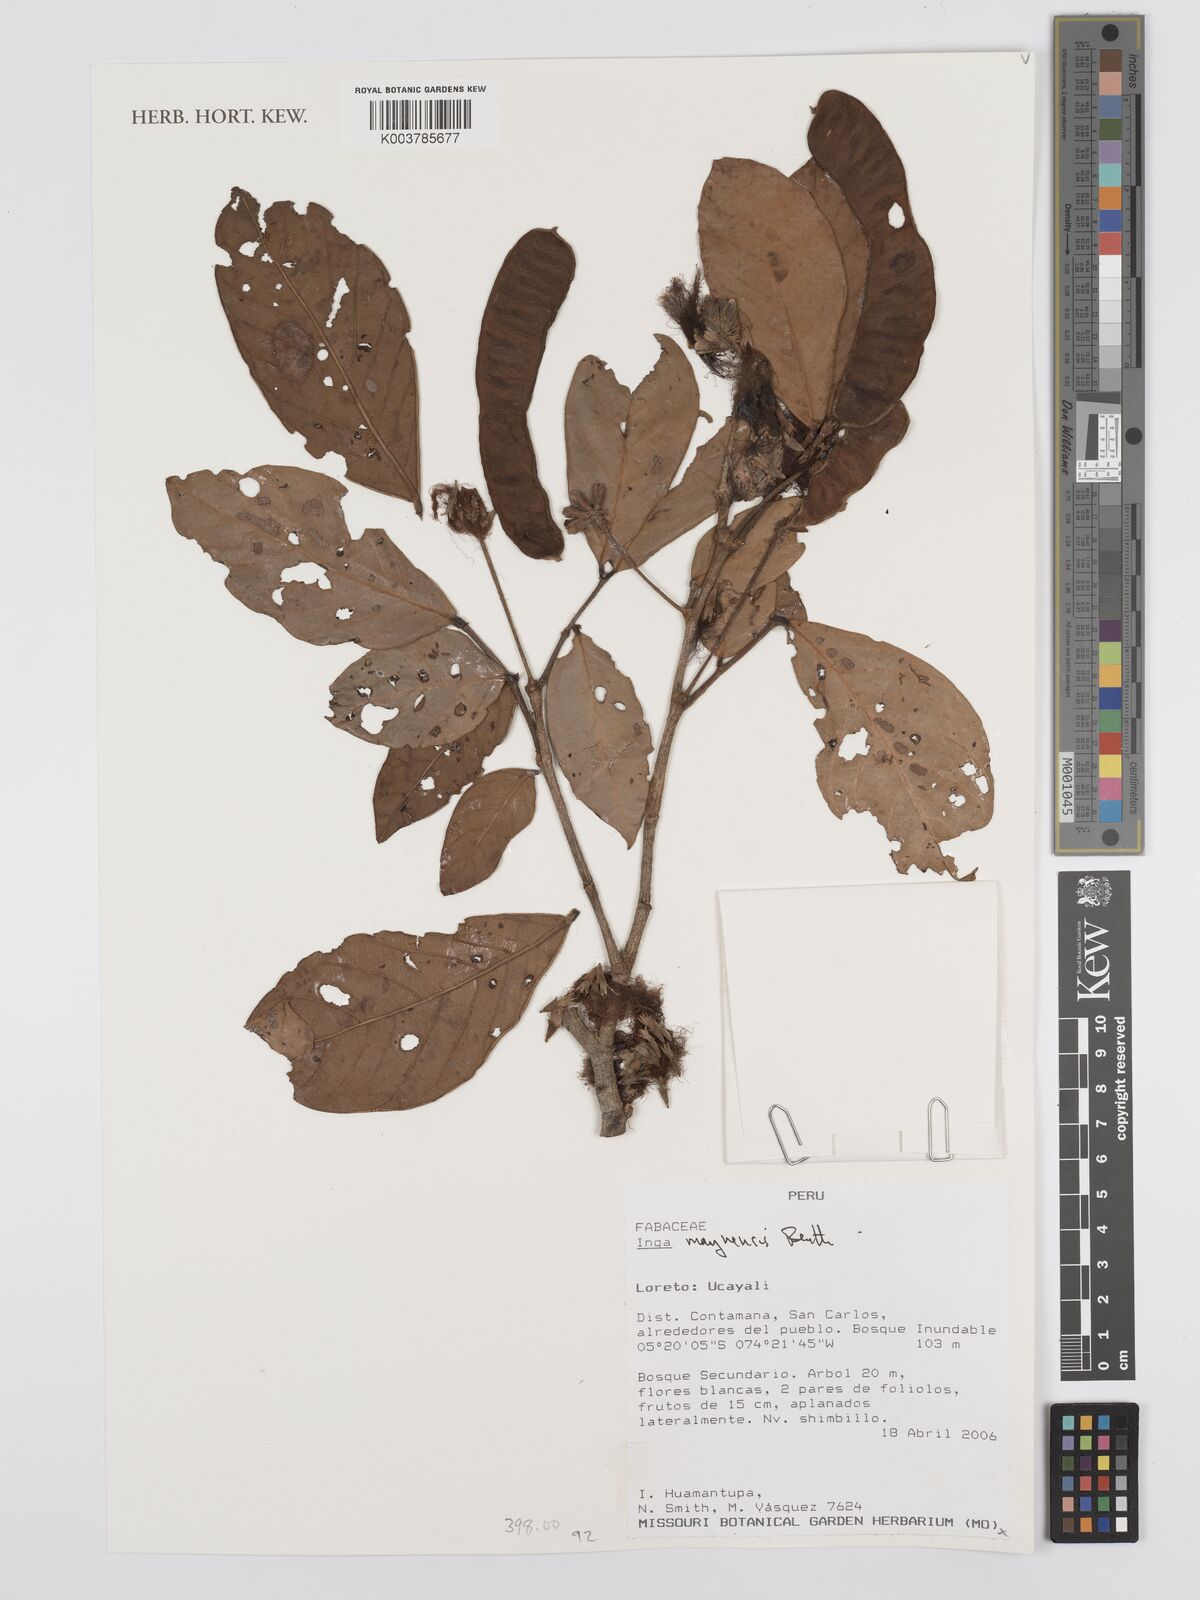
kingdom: Plantae
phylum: Tracheophyta
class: Magnoliopsida
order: Fabales
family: Fabaceae
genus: Inga
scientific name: Inga maynensis
